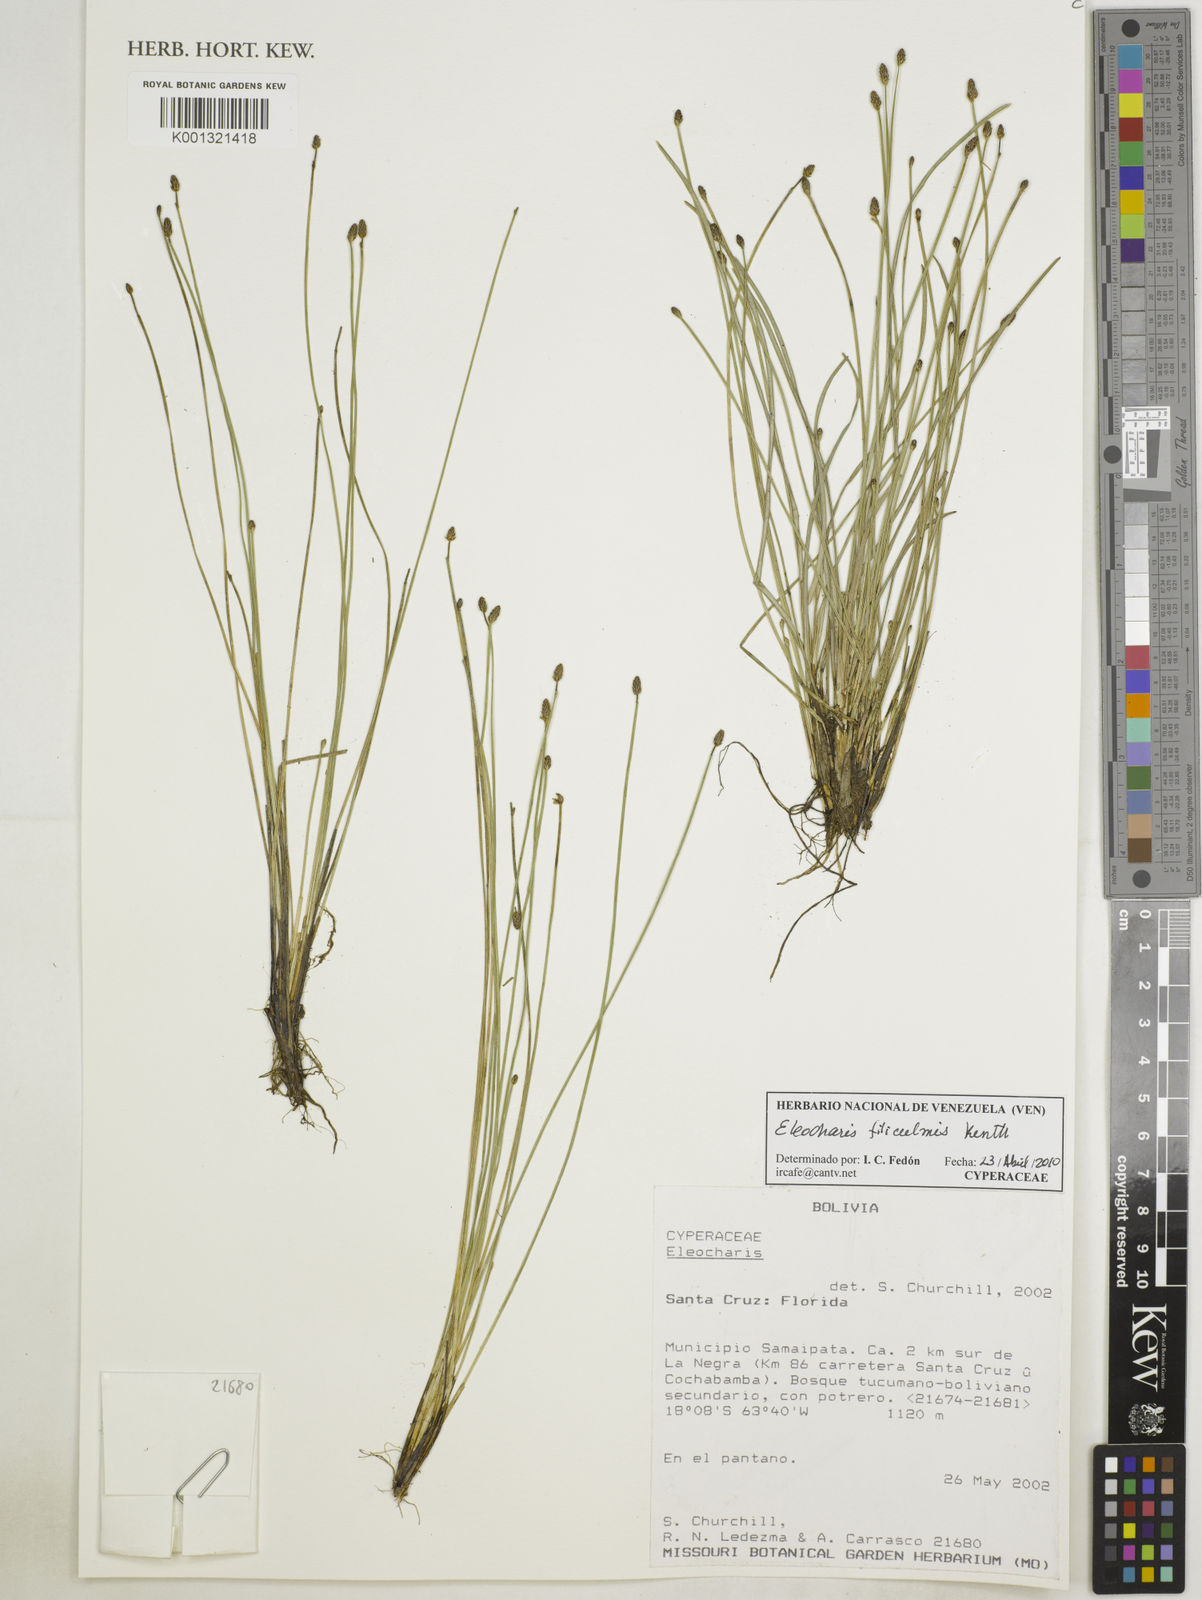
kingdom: Plantae
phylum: Tracheophyta
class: Liliopsida
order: Poales
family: Cyperaceae
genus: Eleocharis
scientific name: Eleocharis filiculmis
